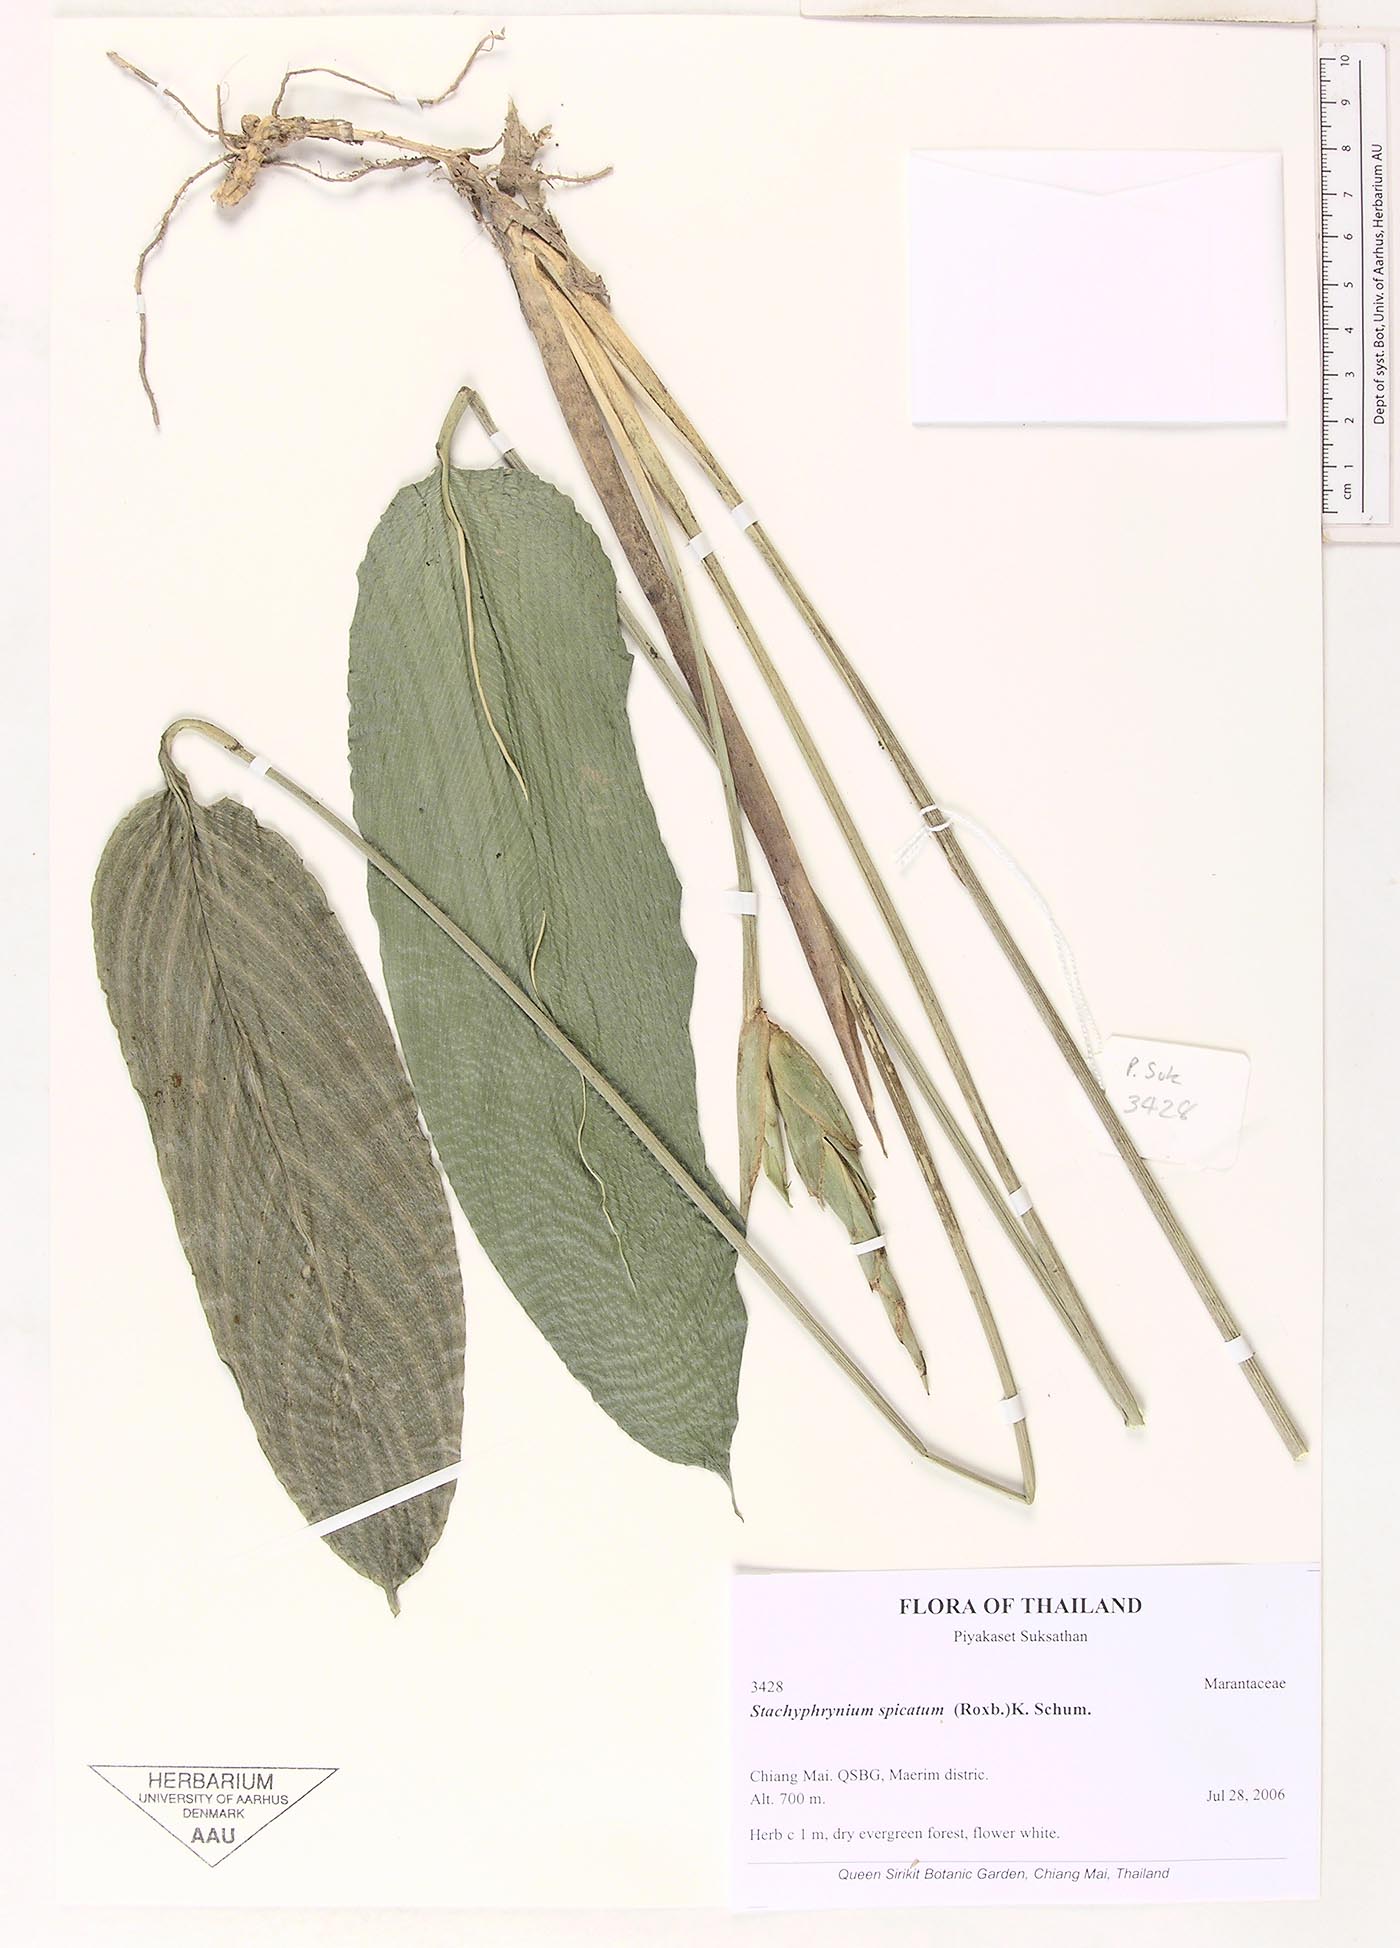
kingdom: Plantae
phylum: Tracheophyta
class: Liliopsida
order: Zingiberales
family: Marantaceae
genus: Stachyphrynium
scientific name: Stachyphrynium spicatum
